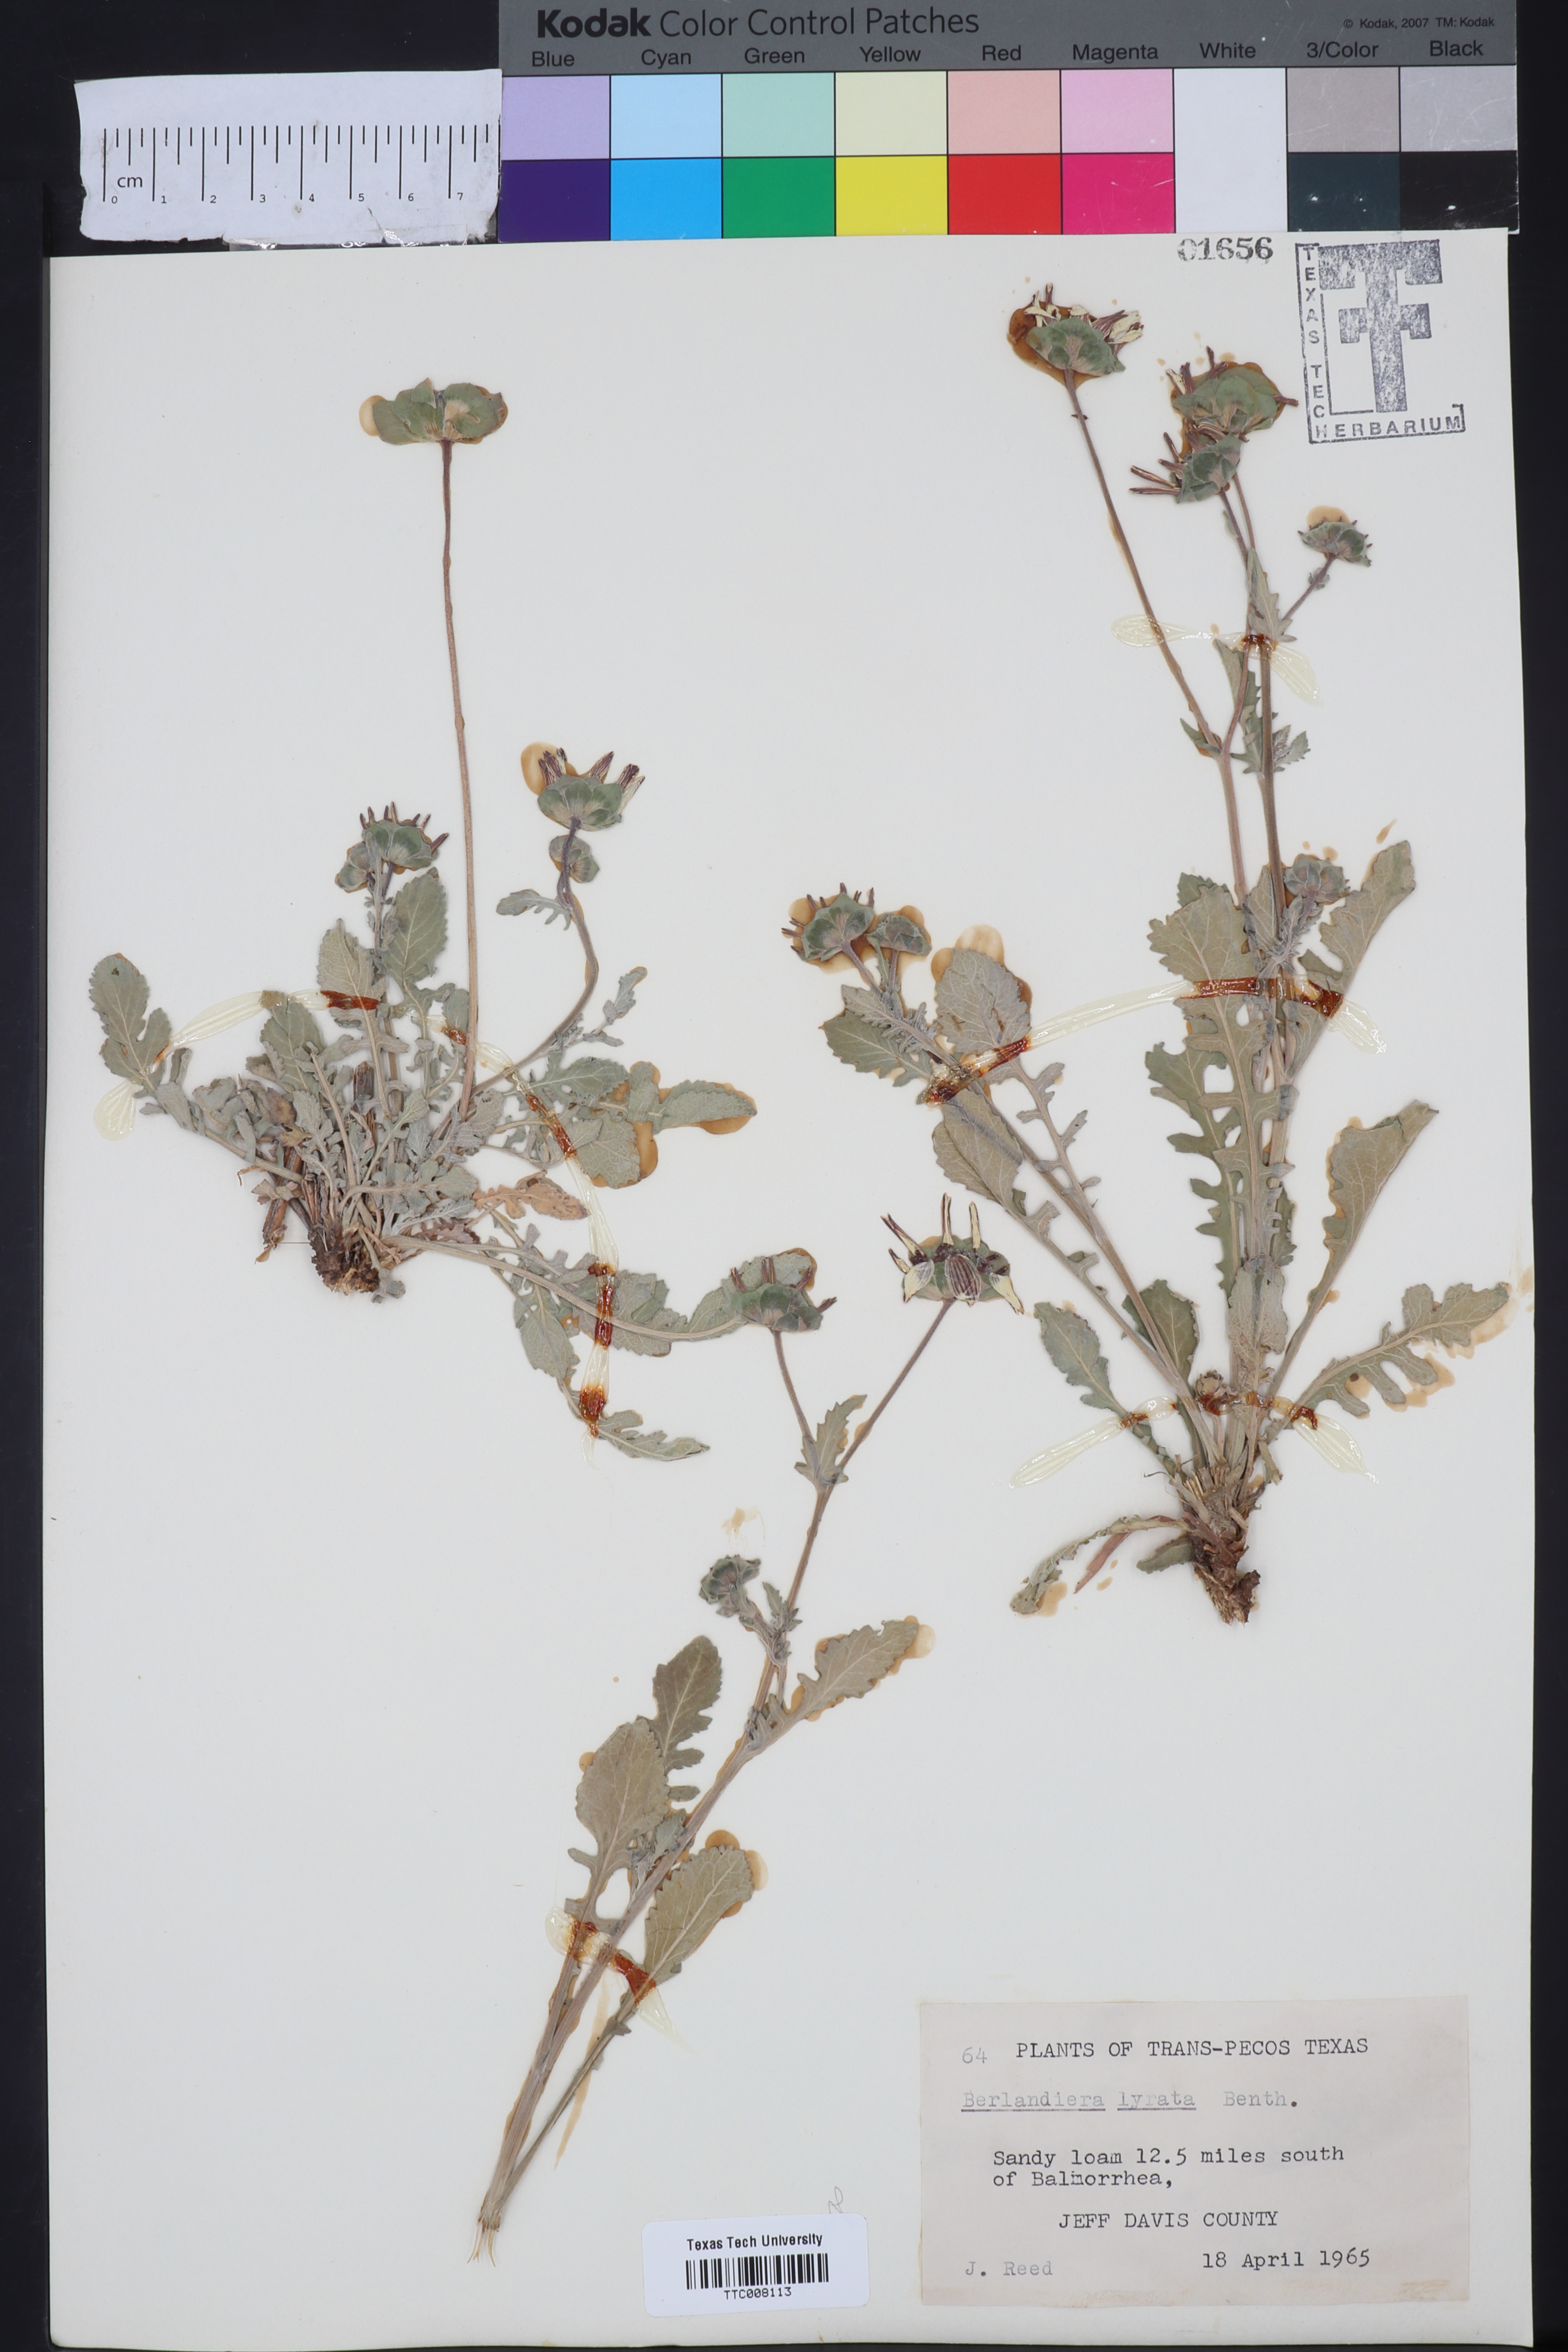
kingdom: Plantae
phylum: Tracheophyta
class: Magnoliopsida
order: Asterales
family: Asteraceae
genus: Berlandiera
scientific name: Berlandiera lyrata
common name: Chocolate-flower
